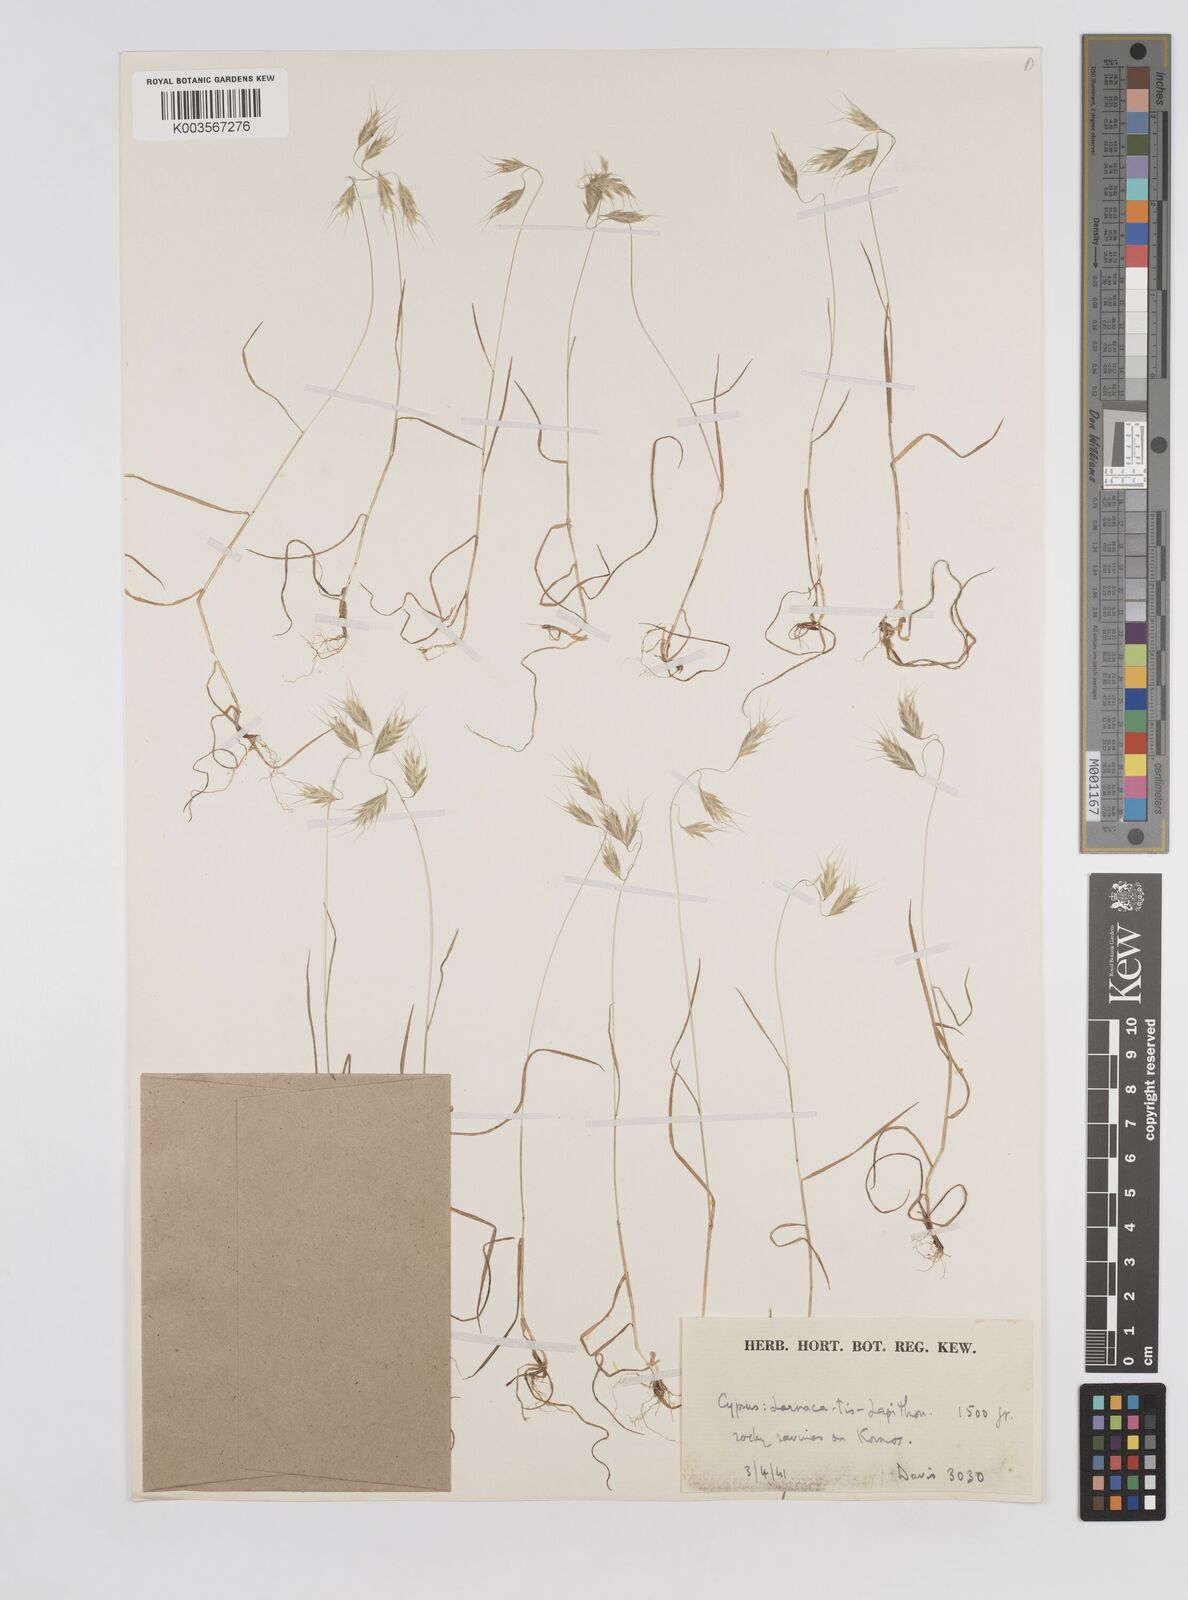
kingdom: Plantae
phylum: Tracheophyta
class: Liliopsida
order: Poales
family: Poaceae
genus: Bromus
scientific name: Bromus intermedius
